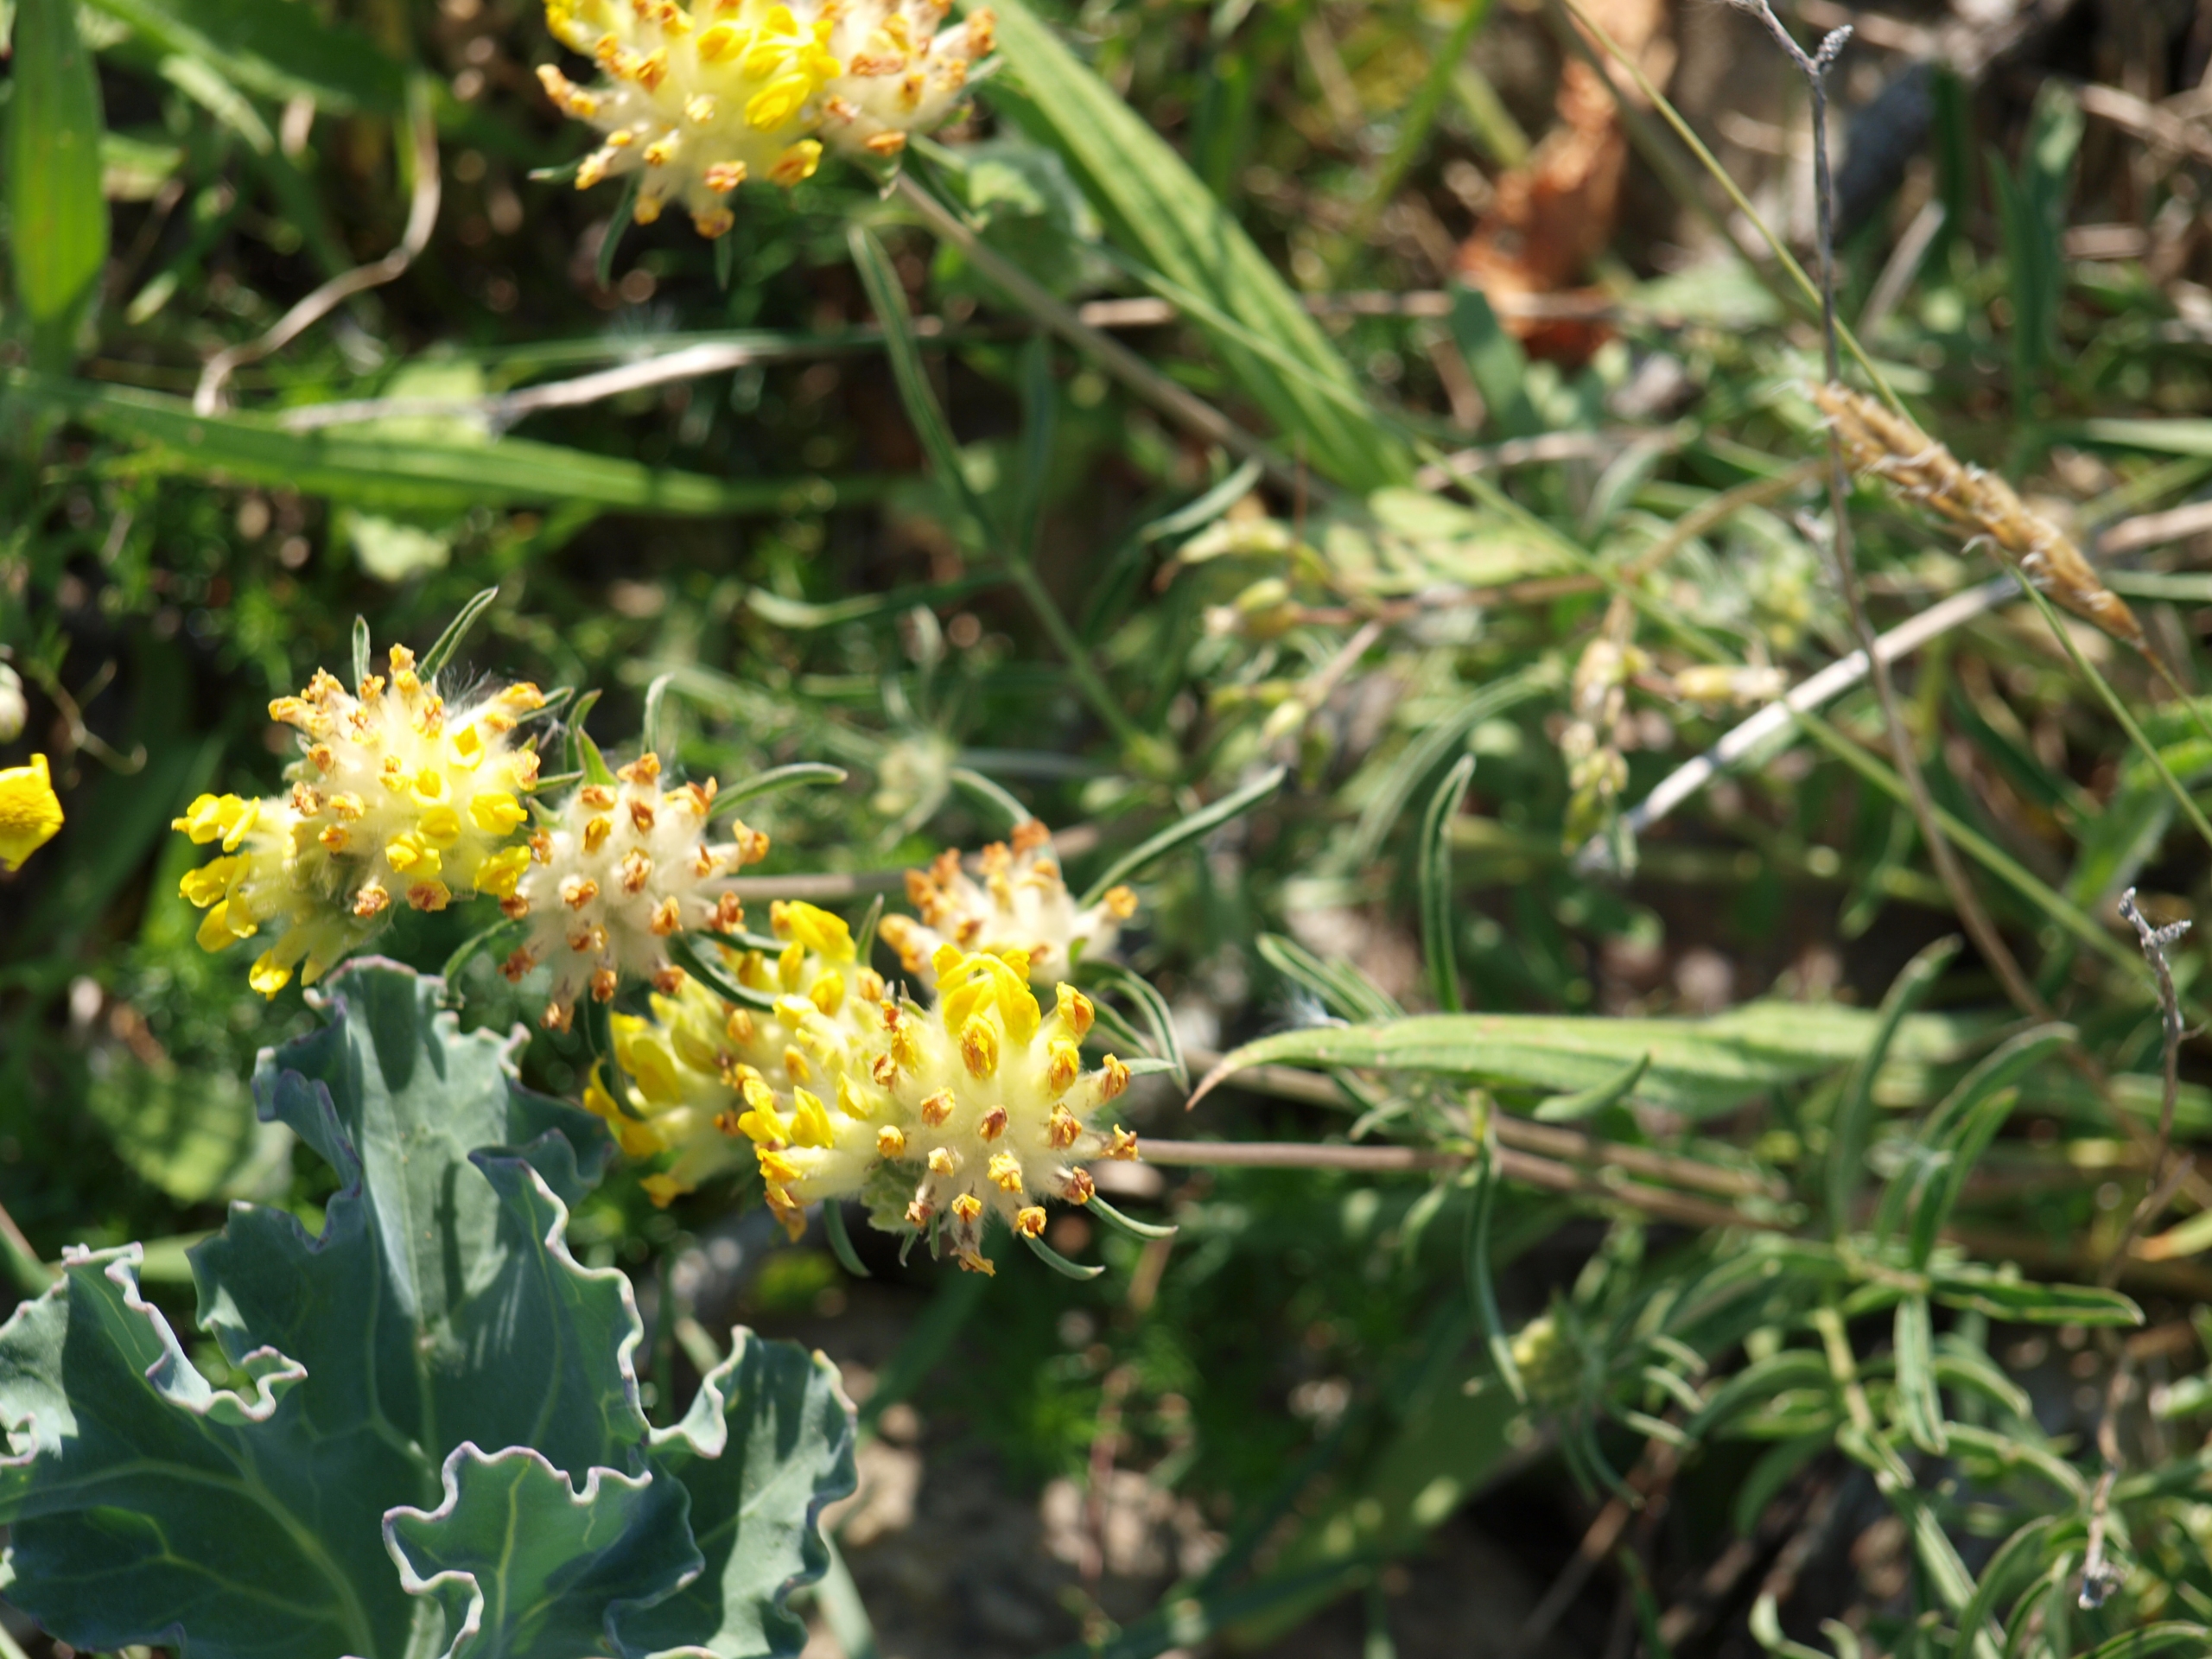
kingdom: Plantae
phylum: Tracheophyta
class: Magnoliopsida
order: Fabales
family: Fabaceae
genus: Anthyllis
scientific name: Anthyllis vulneraria
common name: Rundbælg
